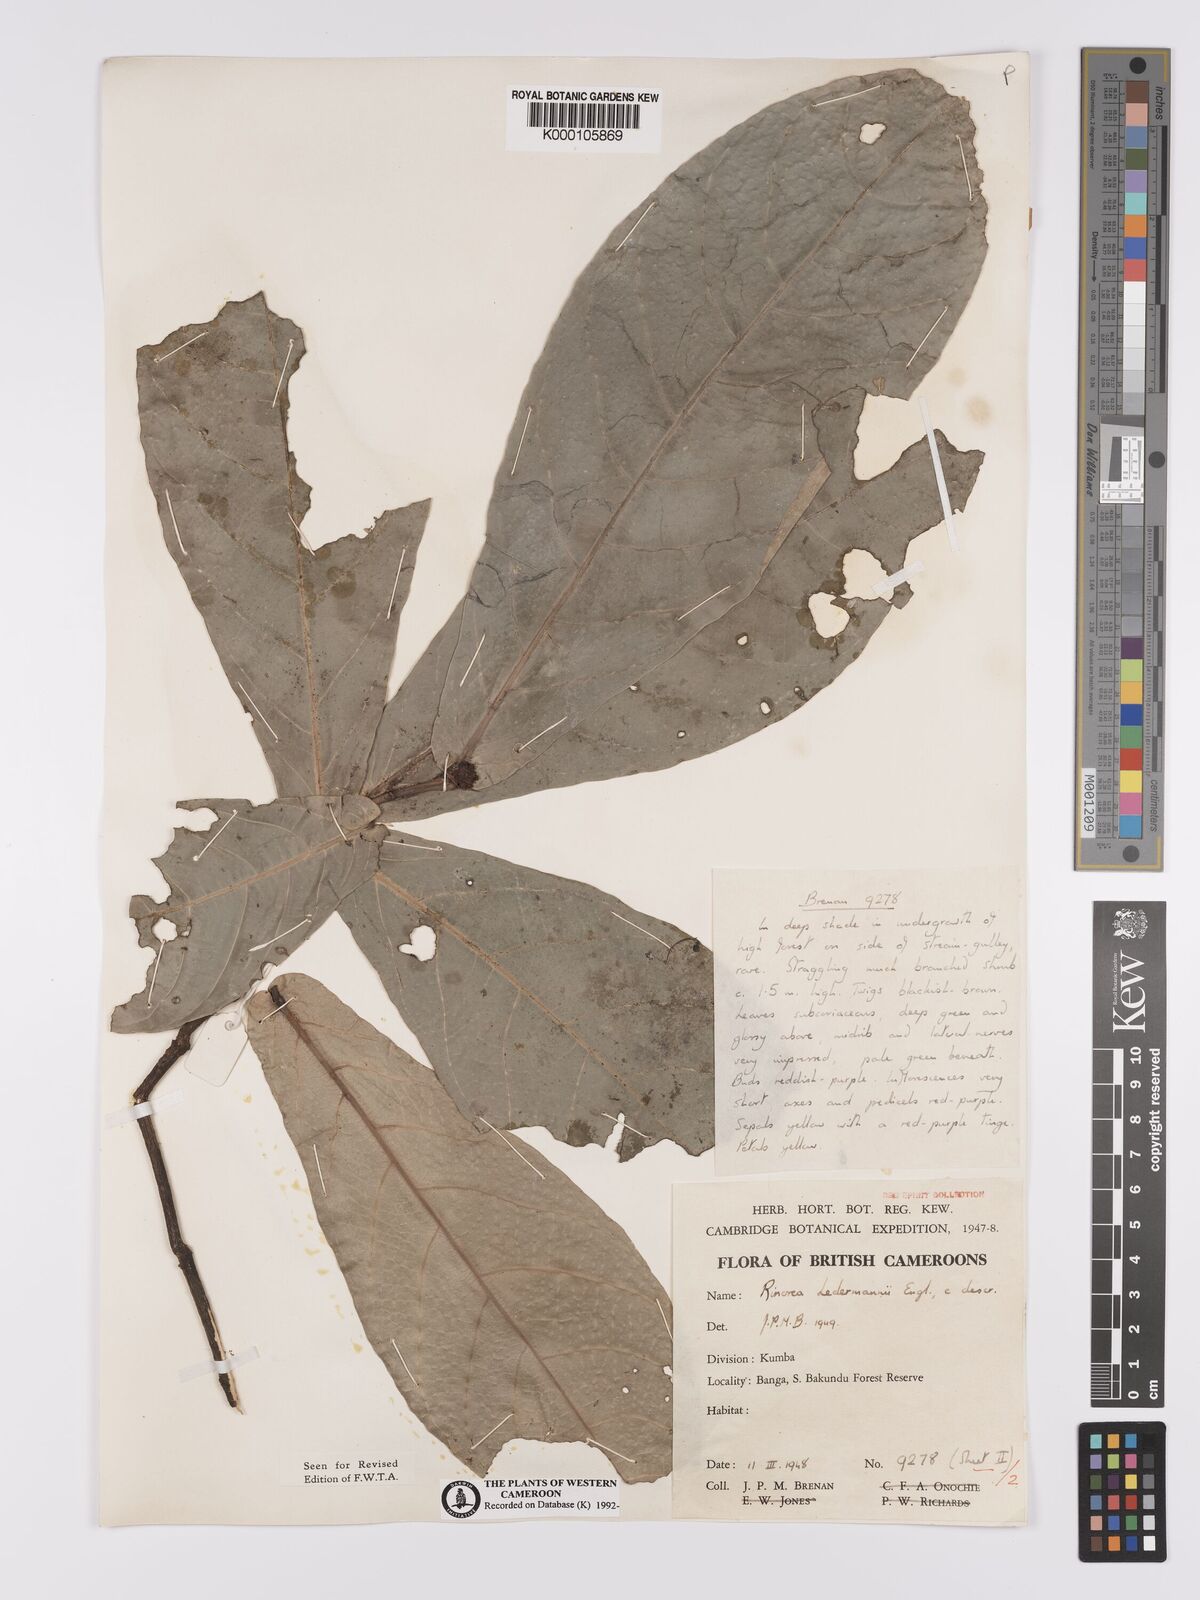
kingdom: Plantae
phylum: Tracheophyta
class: Magnoliopsida
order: Malpighiales
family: Violaceae
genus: Rinorea
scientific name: Rinorea ledermannii
